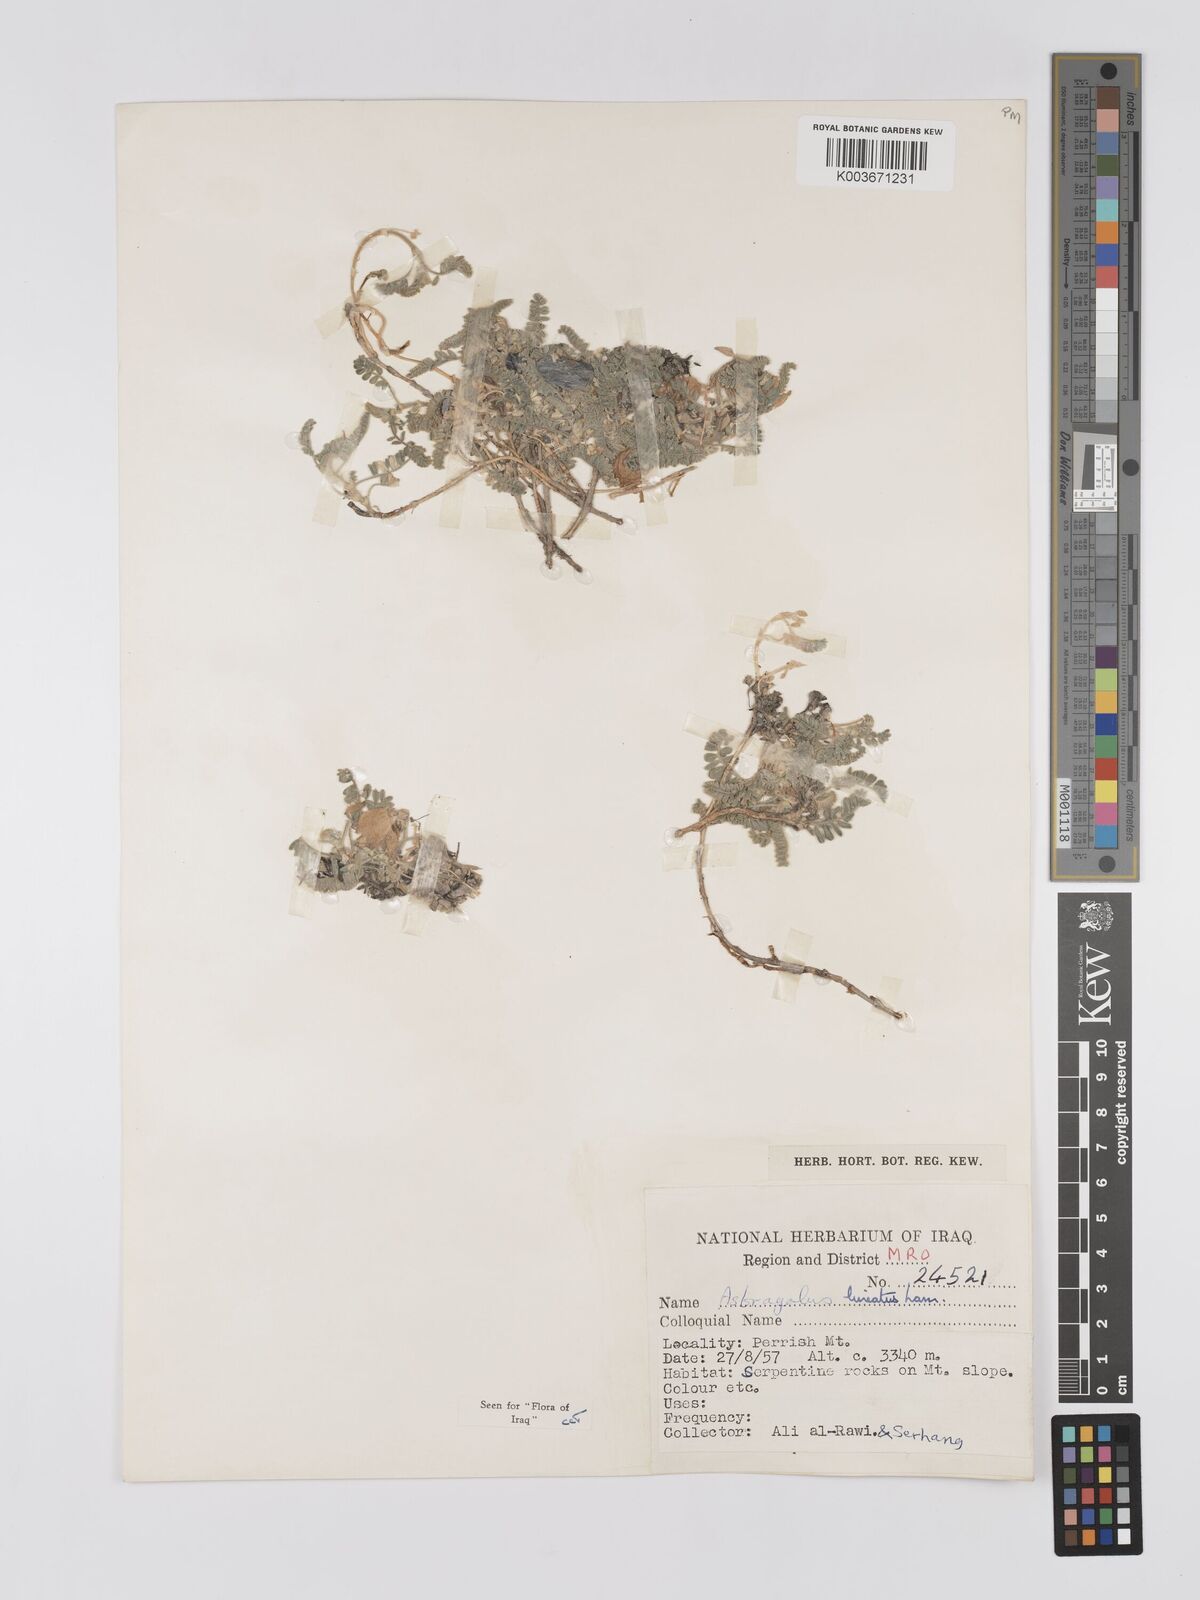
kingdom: Plantae
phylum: Tracheophyta
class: Magnoliopsida
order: Fabales
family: Fabaceae
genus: Astragalus
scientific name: Astragalus lineatus
